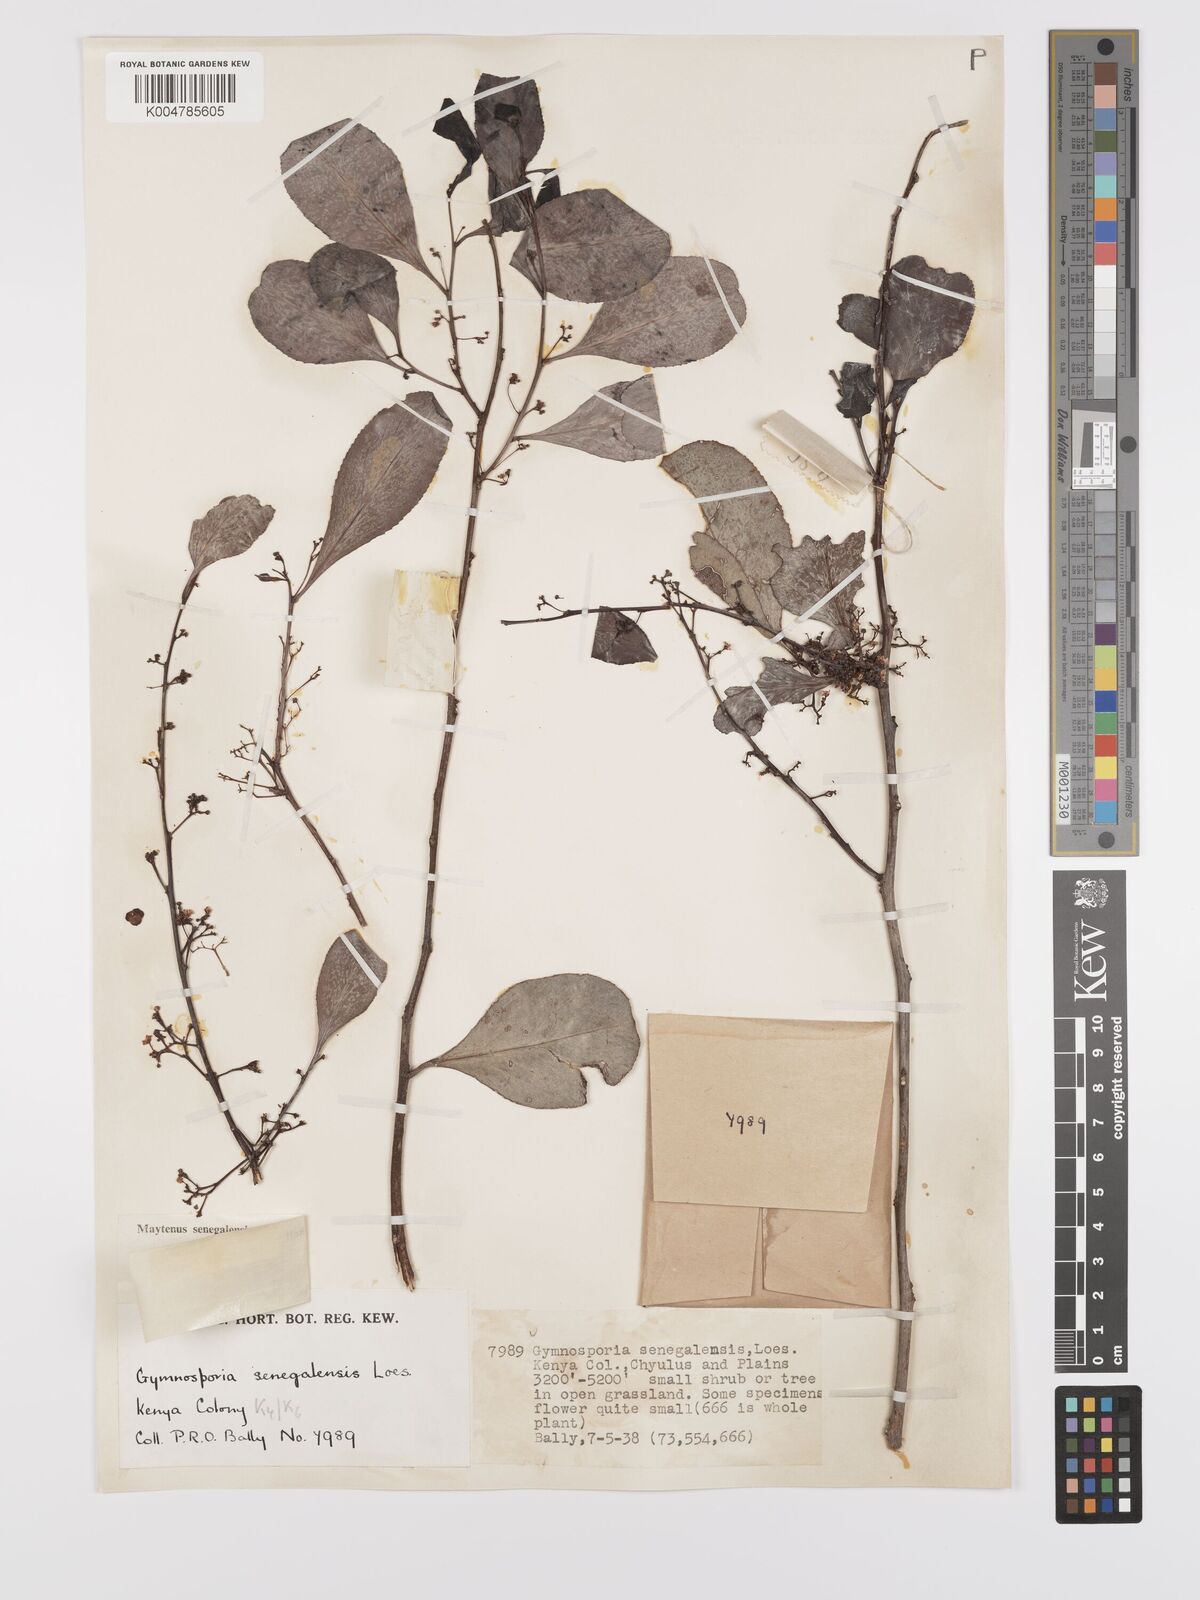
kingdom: Plantae
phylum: Tracheophyta
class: Magnoliopsida
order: Celastrales
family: Celastraceae
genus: Gymnosporia
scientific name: Gymnosporia senegalensis
